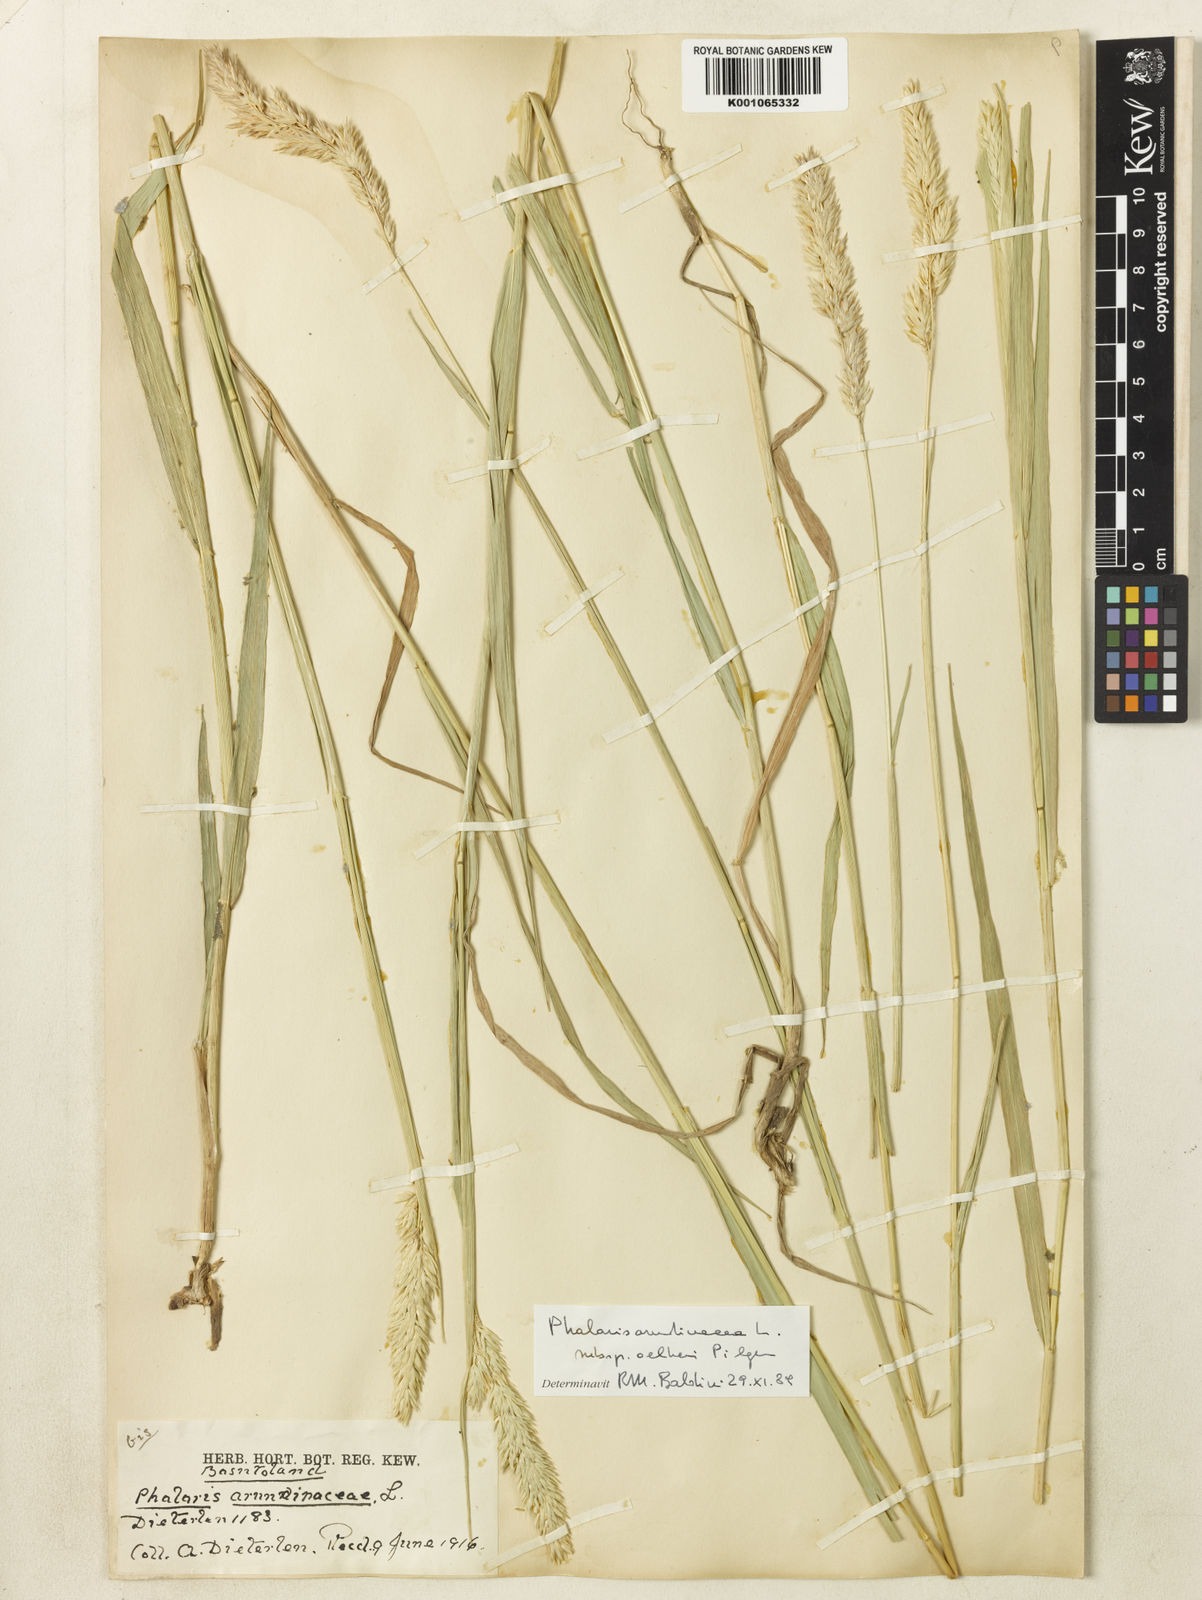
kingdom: Plantae
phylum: Tracheophyta
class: Liliopsida
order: Poales
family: Poaceae
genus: Phalaris
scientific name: Phalaris arundinacea
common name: Reed canary-grass
